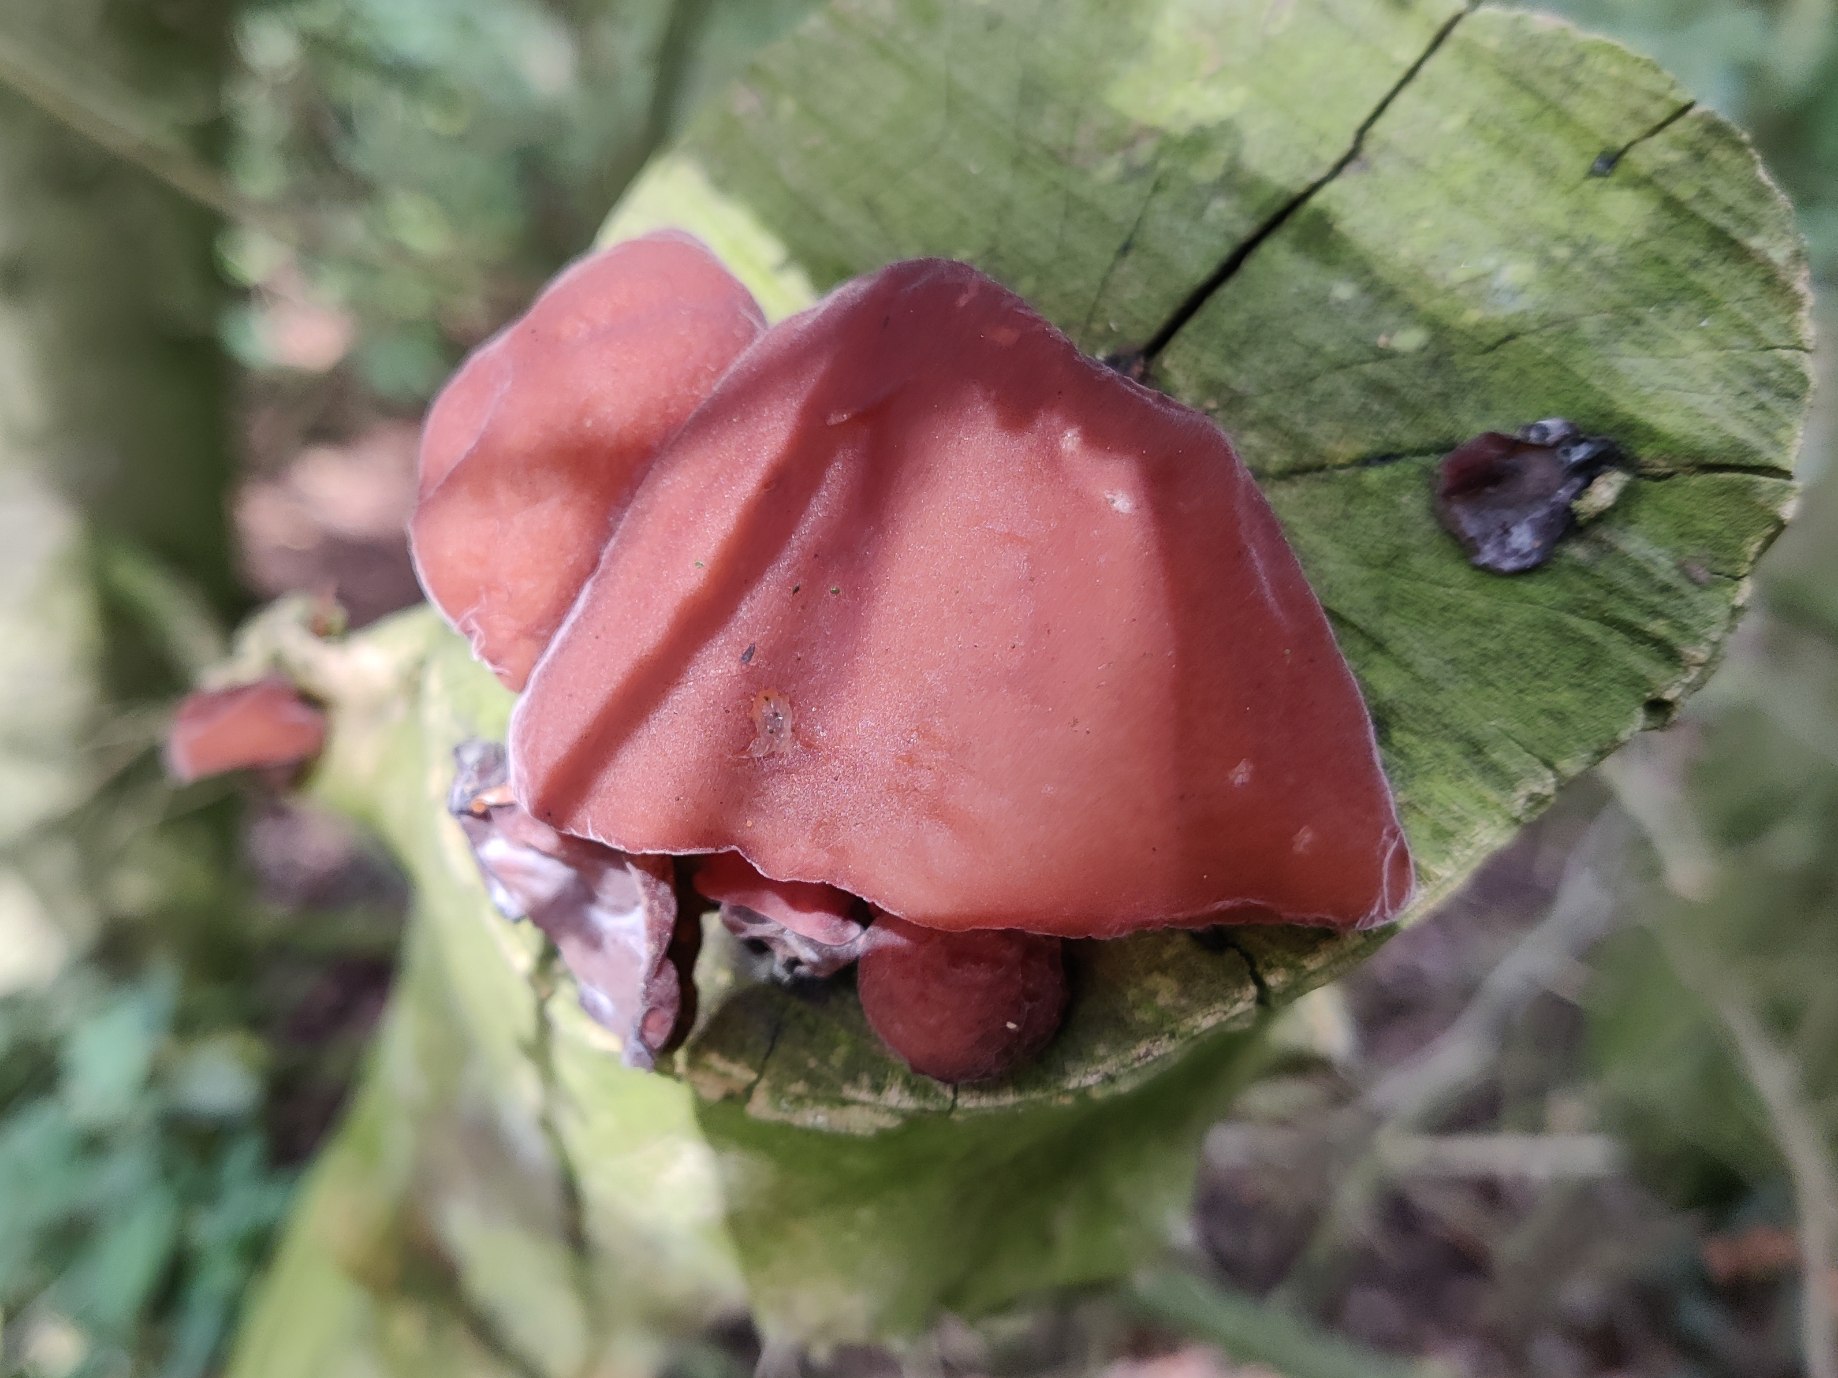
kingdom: Fungi
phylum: Basidiomycota
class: Agaricomycetes
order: Auriculariales
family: Auriculariaceae
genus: Auricularia
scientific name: Auricularia auricula-judae
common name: Almindelig judasøre
